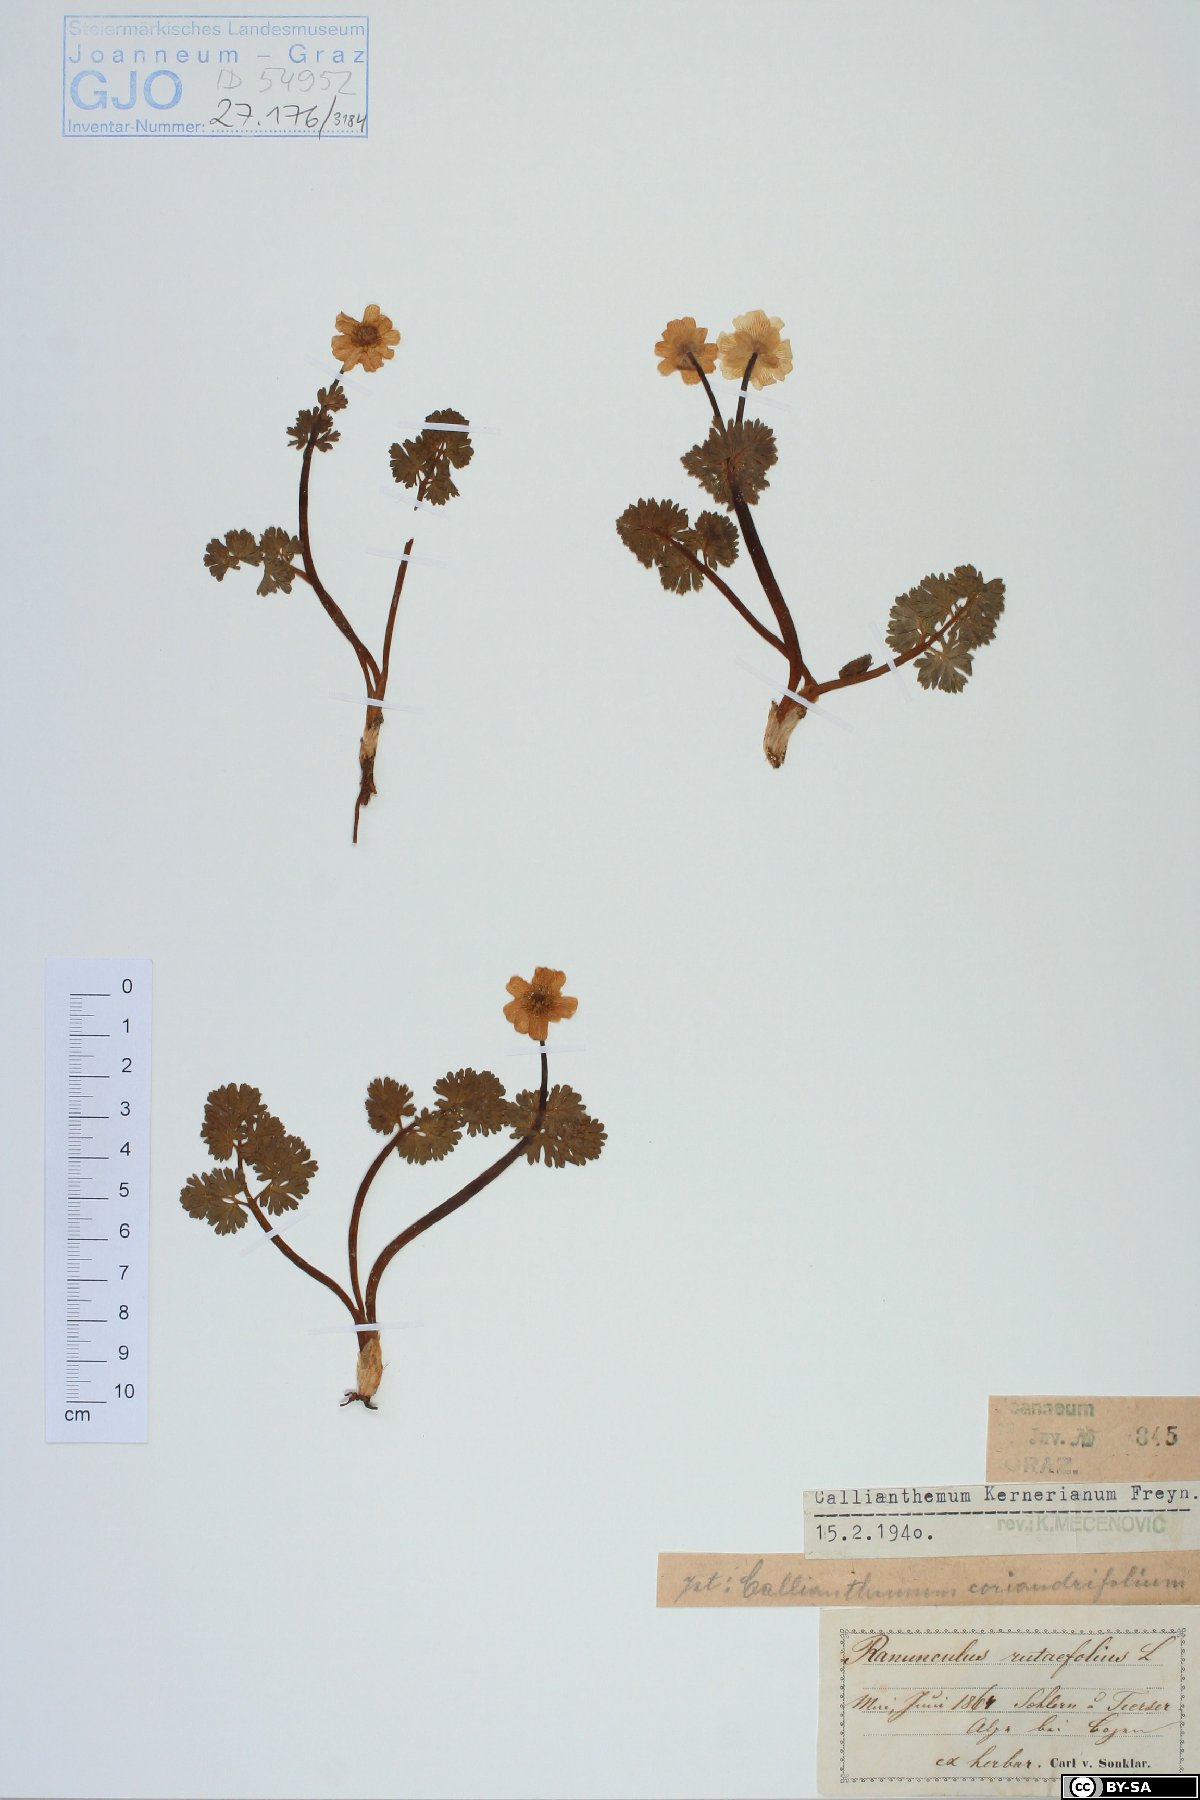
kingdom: Plantae
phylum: Tracheophyta
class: Magnoliopsida
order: Ranunculales
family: Ranunculaceae
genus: Callianthemum
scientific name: Callianthemum kernerianum
